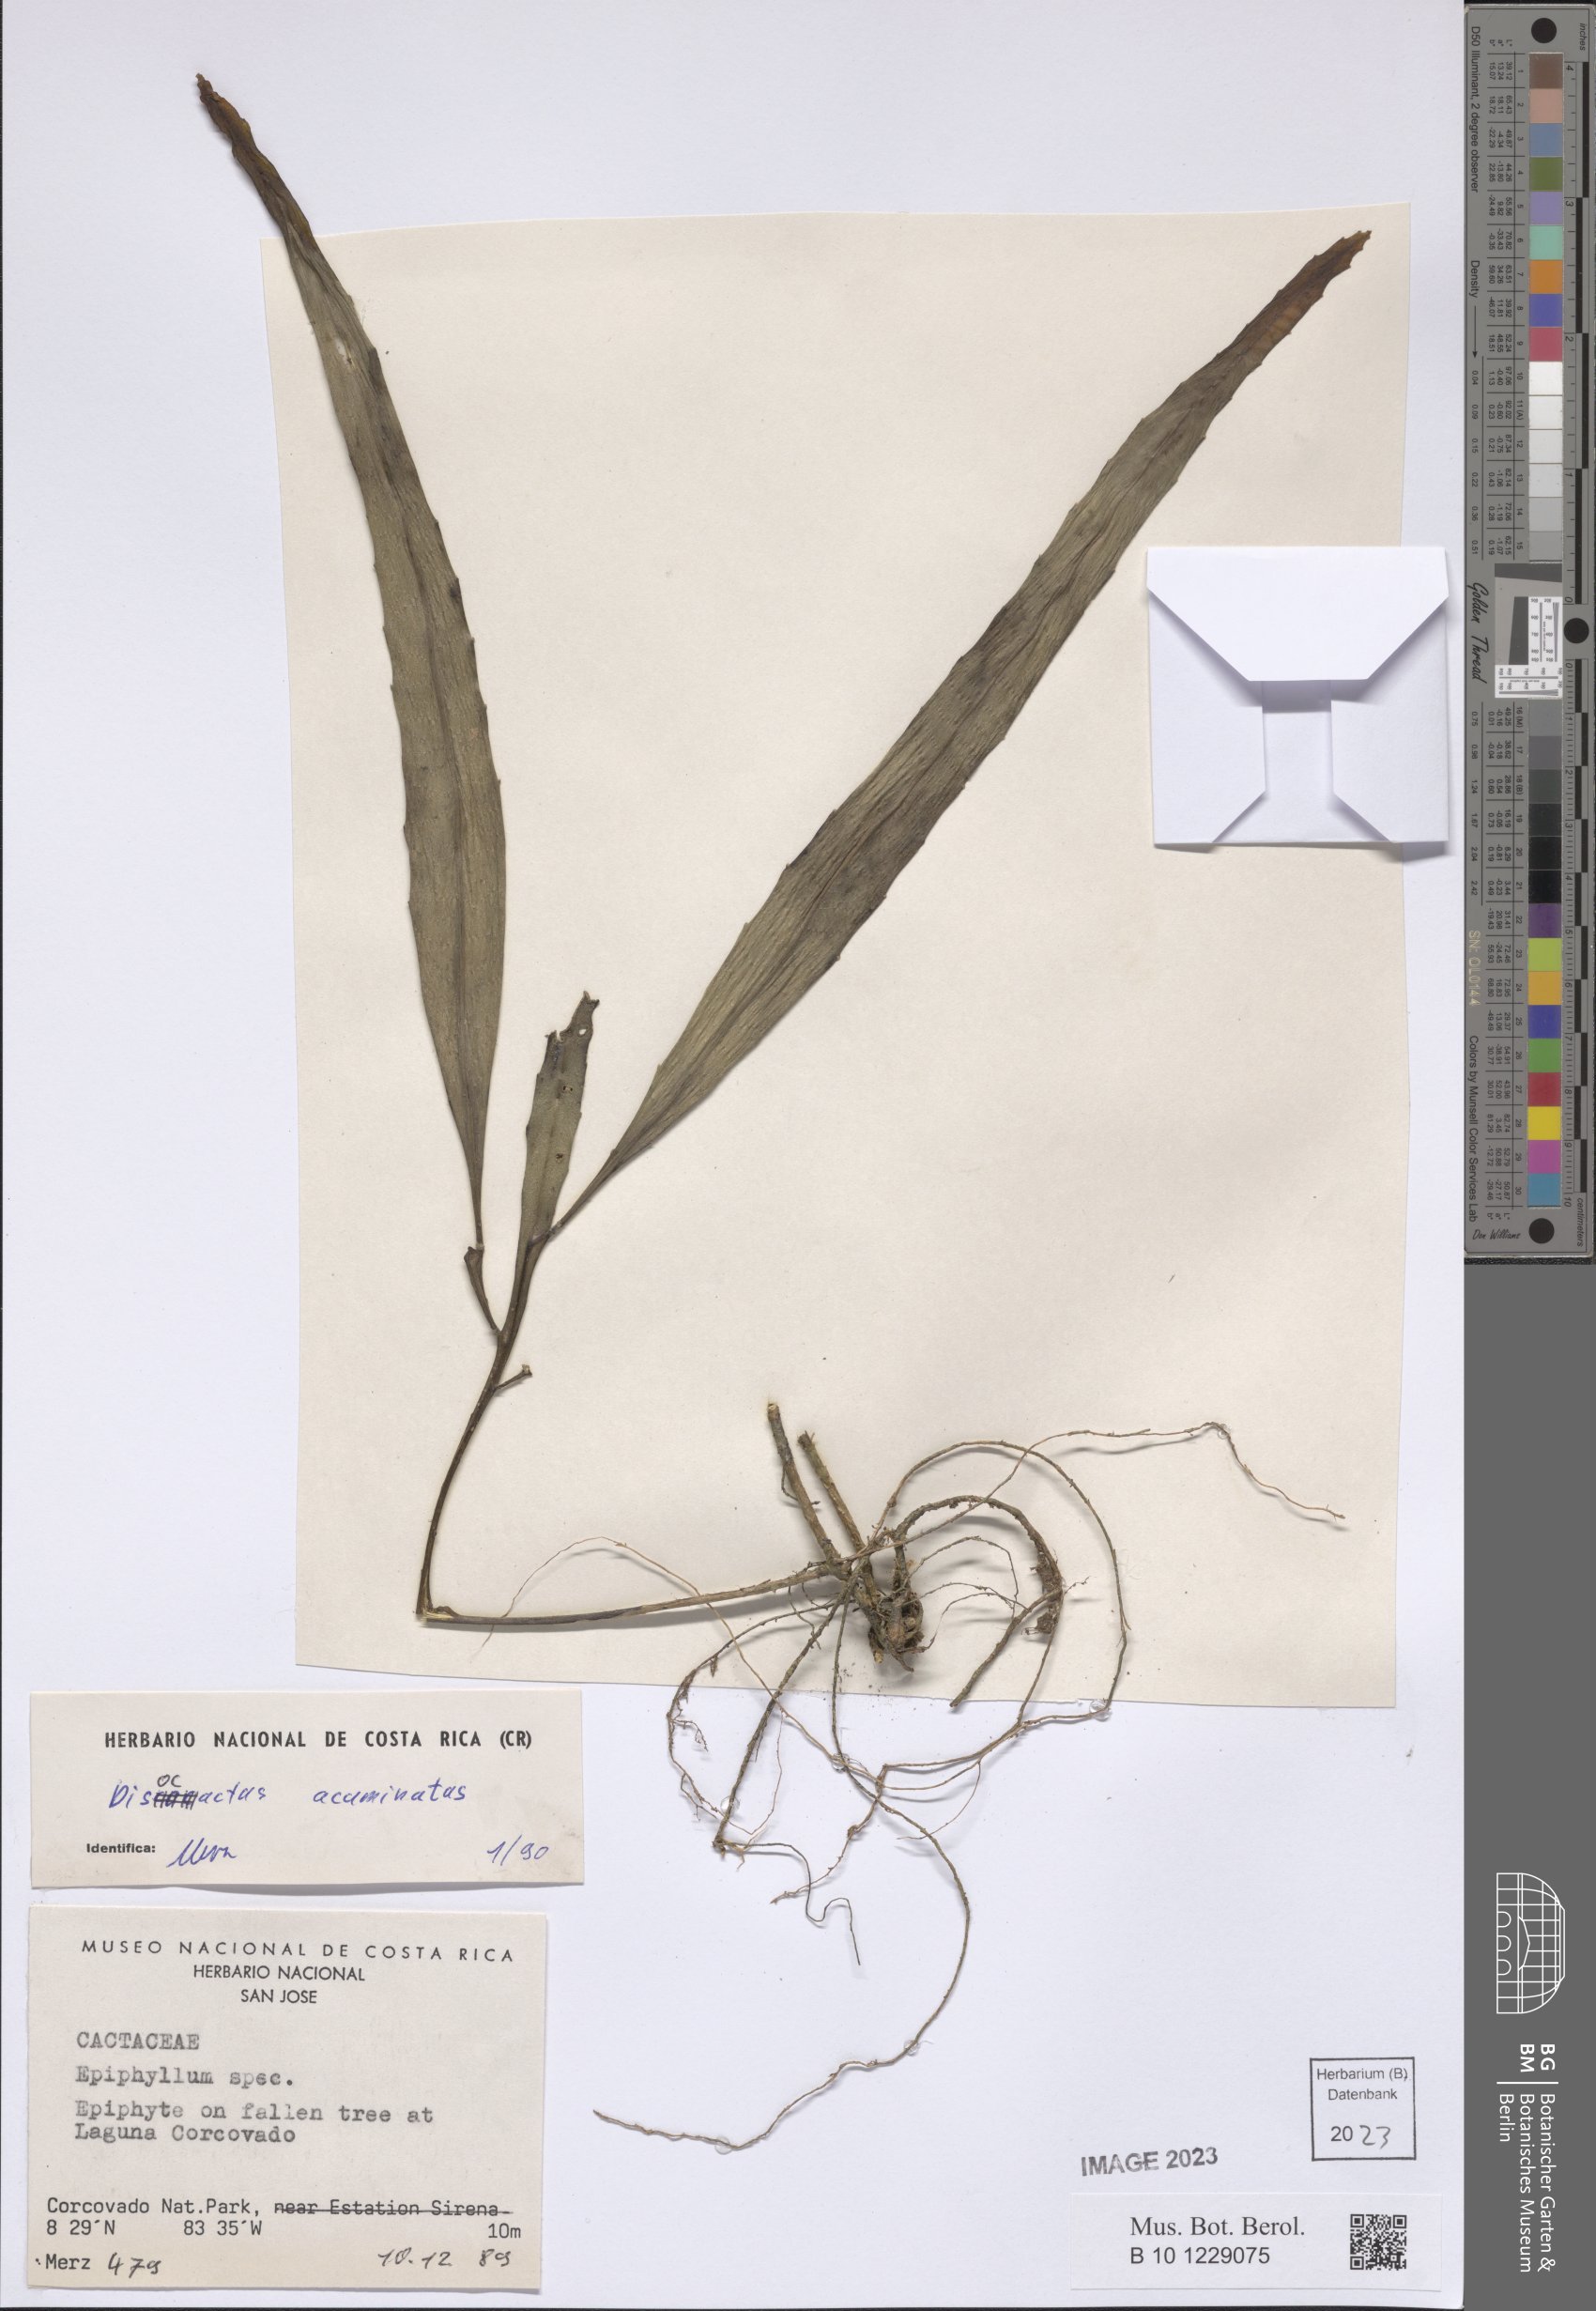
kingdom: Plantae
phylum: Tracheophyta
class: Magnoliopsida
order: Caryophyllales
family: Cactaceae
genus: Pseudorhipsalis
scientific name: Pseudorhipsalis acuminata
